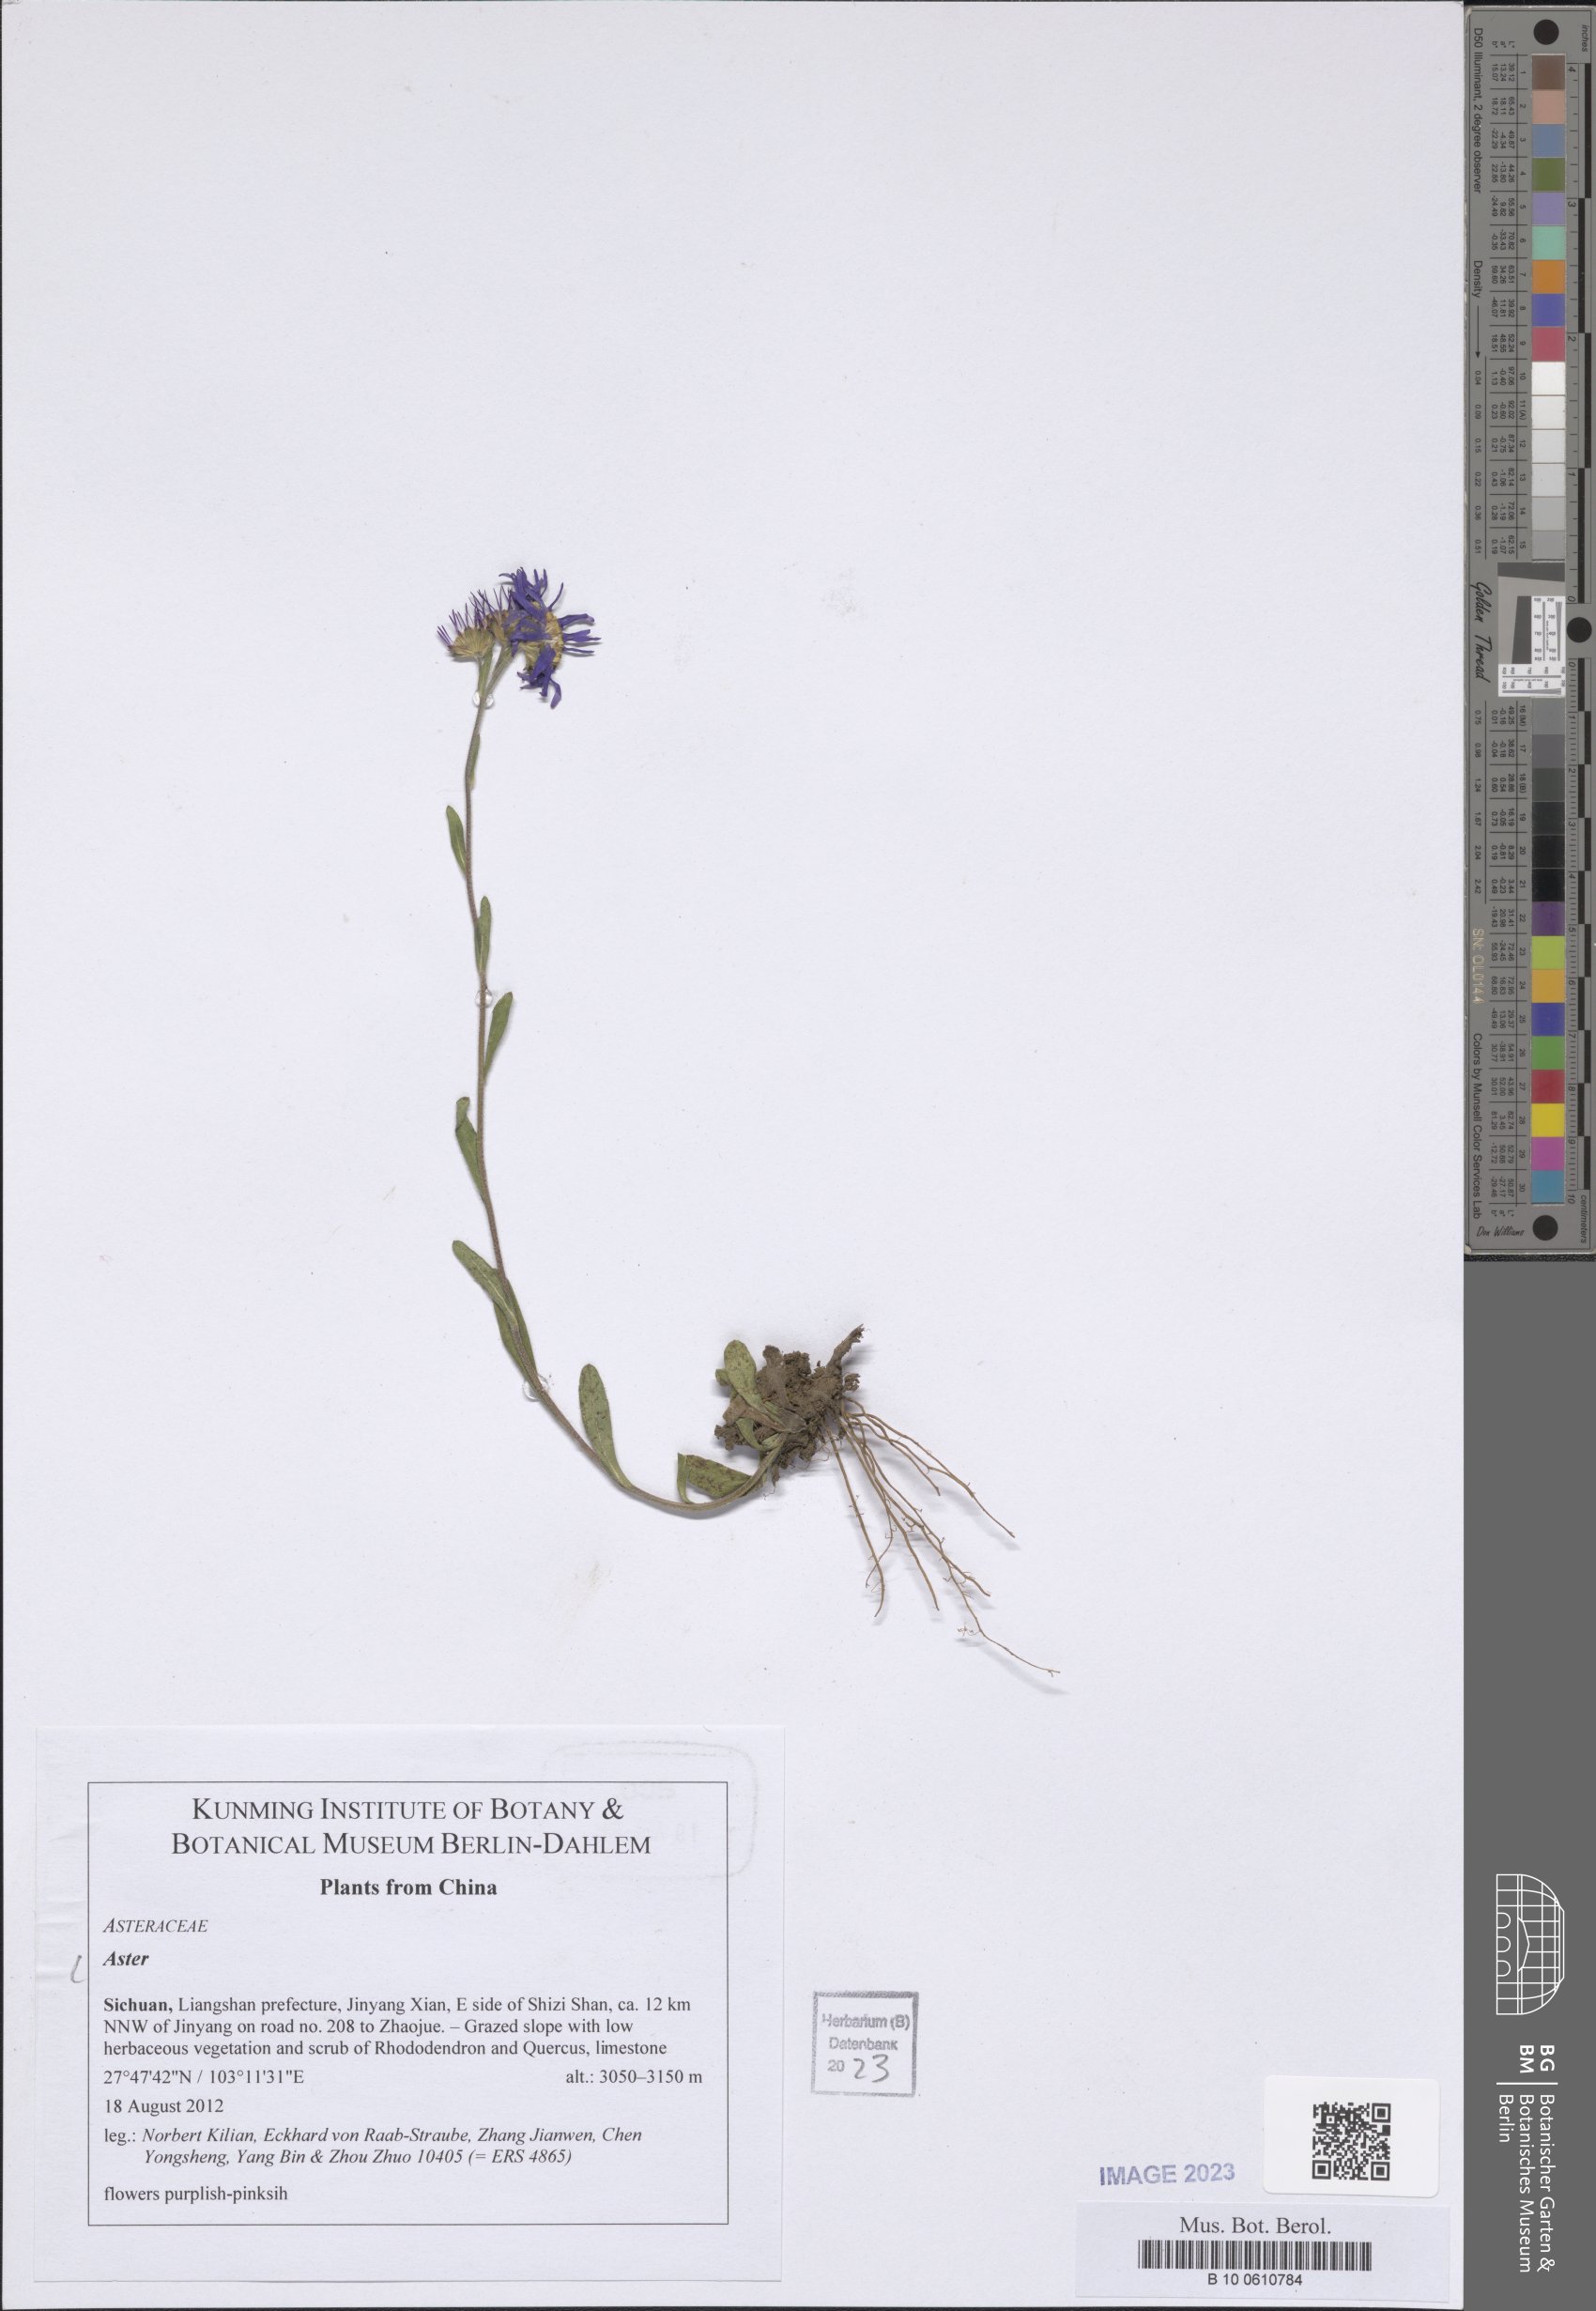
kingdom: Plantae
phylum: Tracheophyta
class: Magnoliopsida
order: Asterales
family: Asteraceae
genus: Aster
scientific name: Aster
